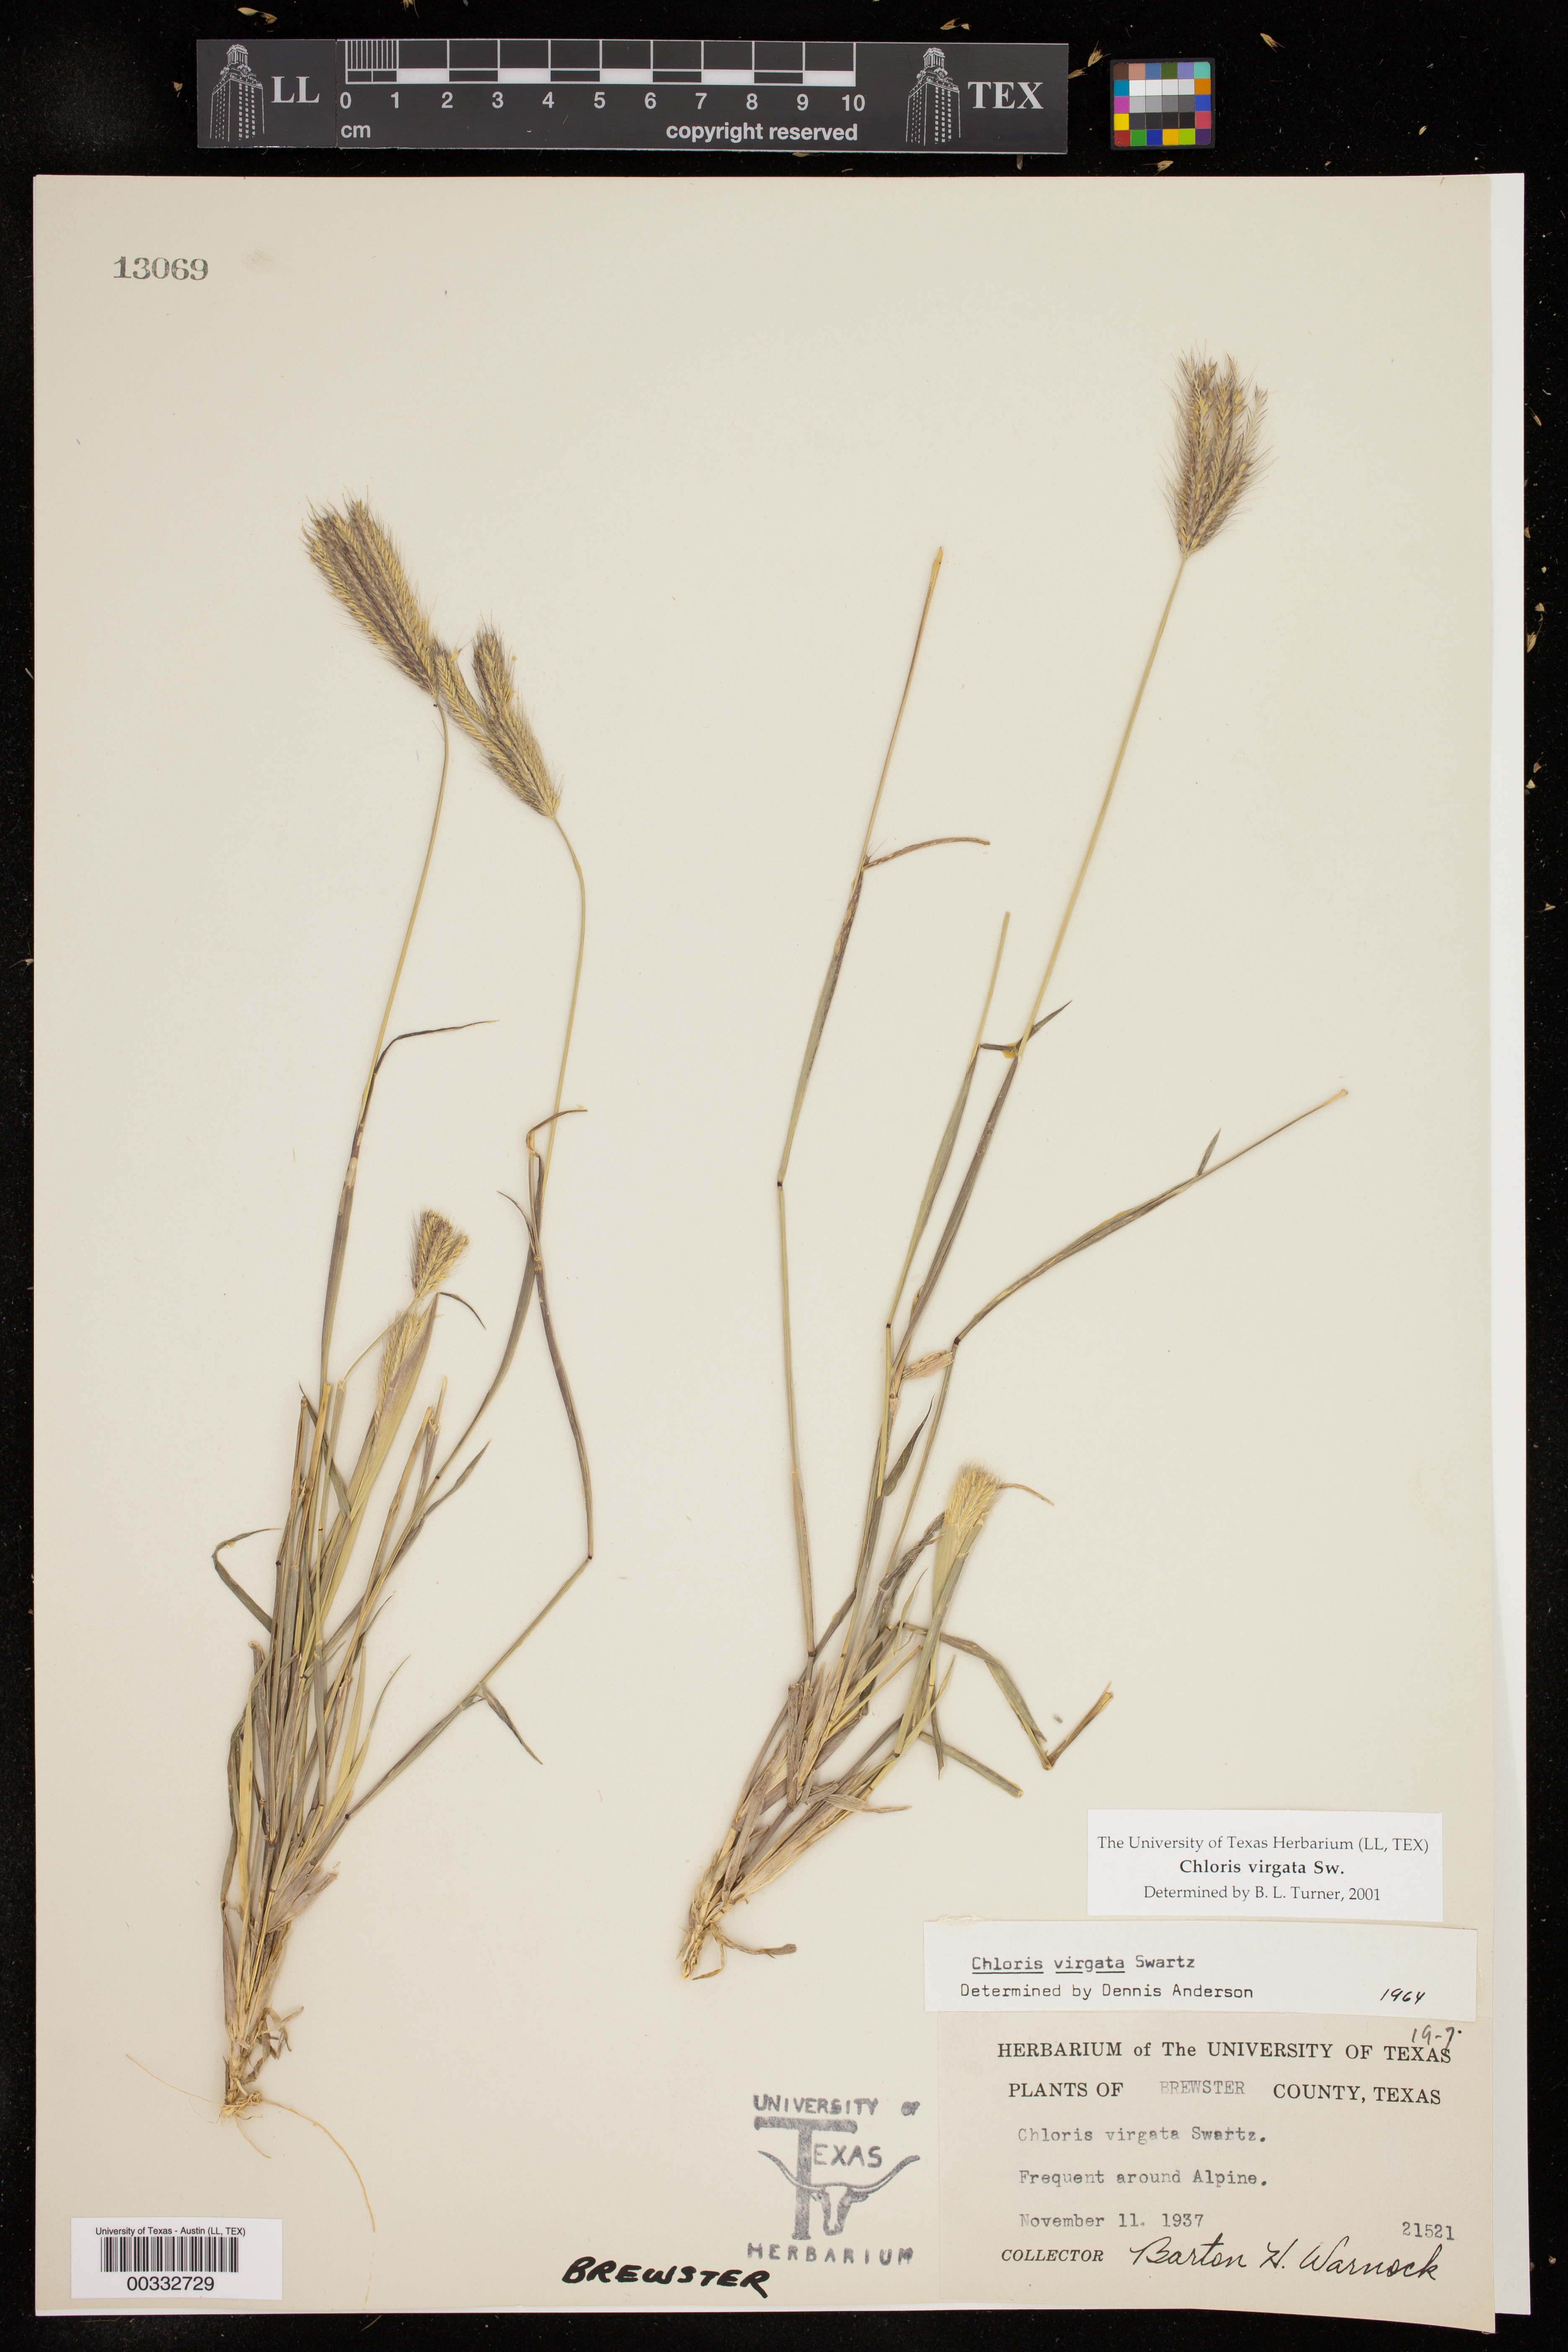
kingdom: Plantae
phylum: Tracheophyta
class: Liliopsida
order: Poales
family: Poaceae
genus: Chloris
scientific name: Chloris virgata
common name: Feathery rhodes-grass
